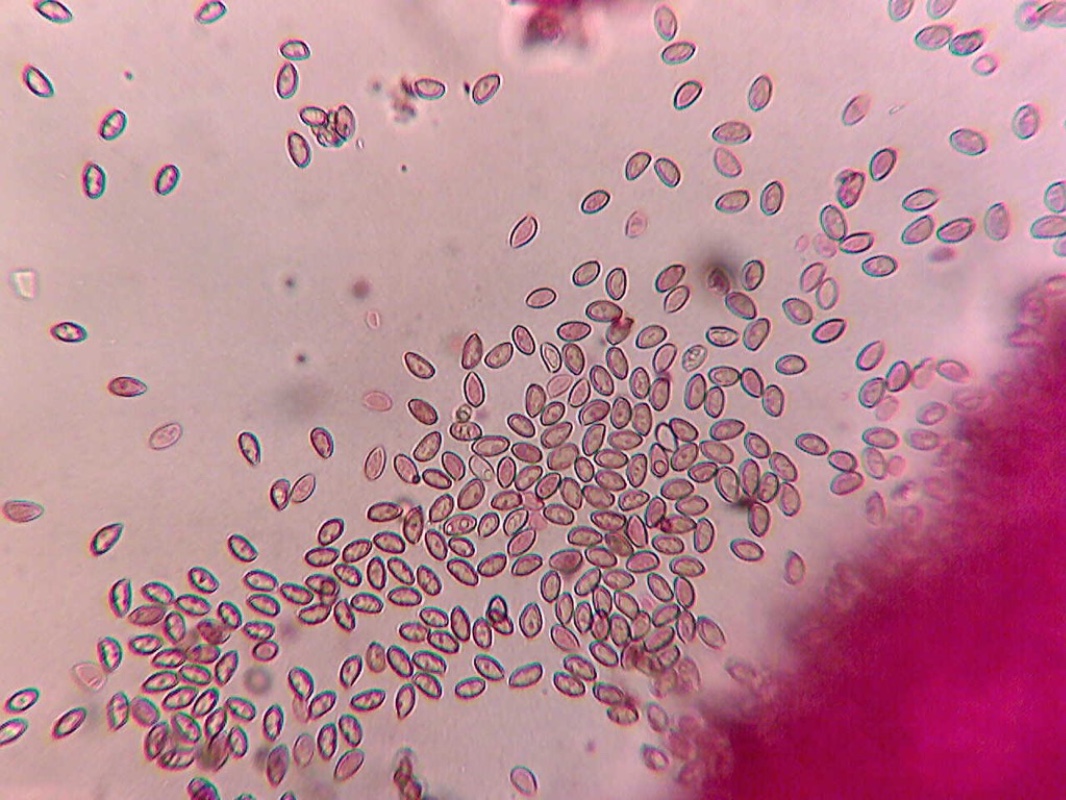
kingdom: Fungi
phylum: Basidiomycota
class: Agaricomycetes
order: Agaricales
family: Inocybaceae
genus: Inocybe
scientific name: Inocybe psammobrunnea
